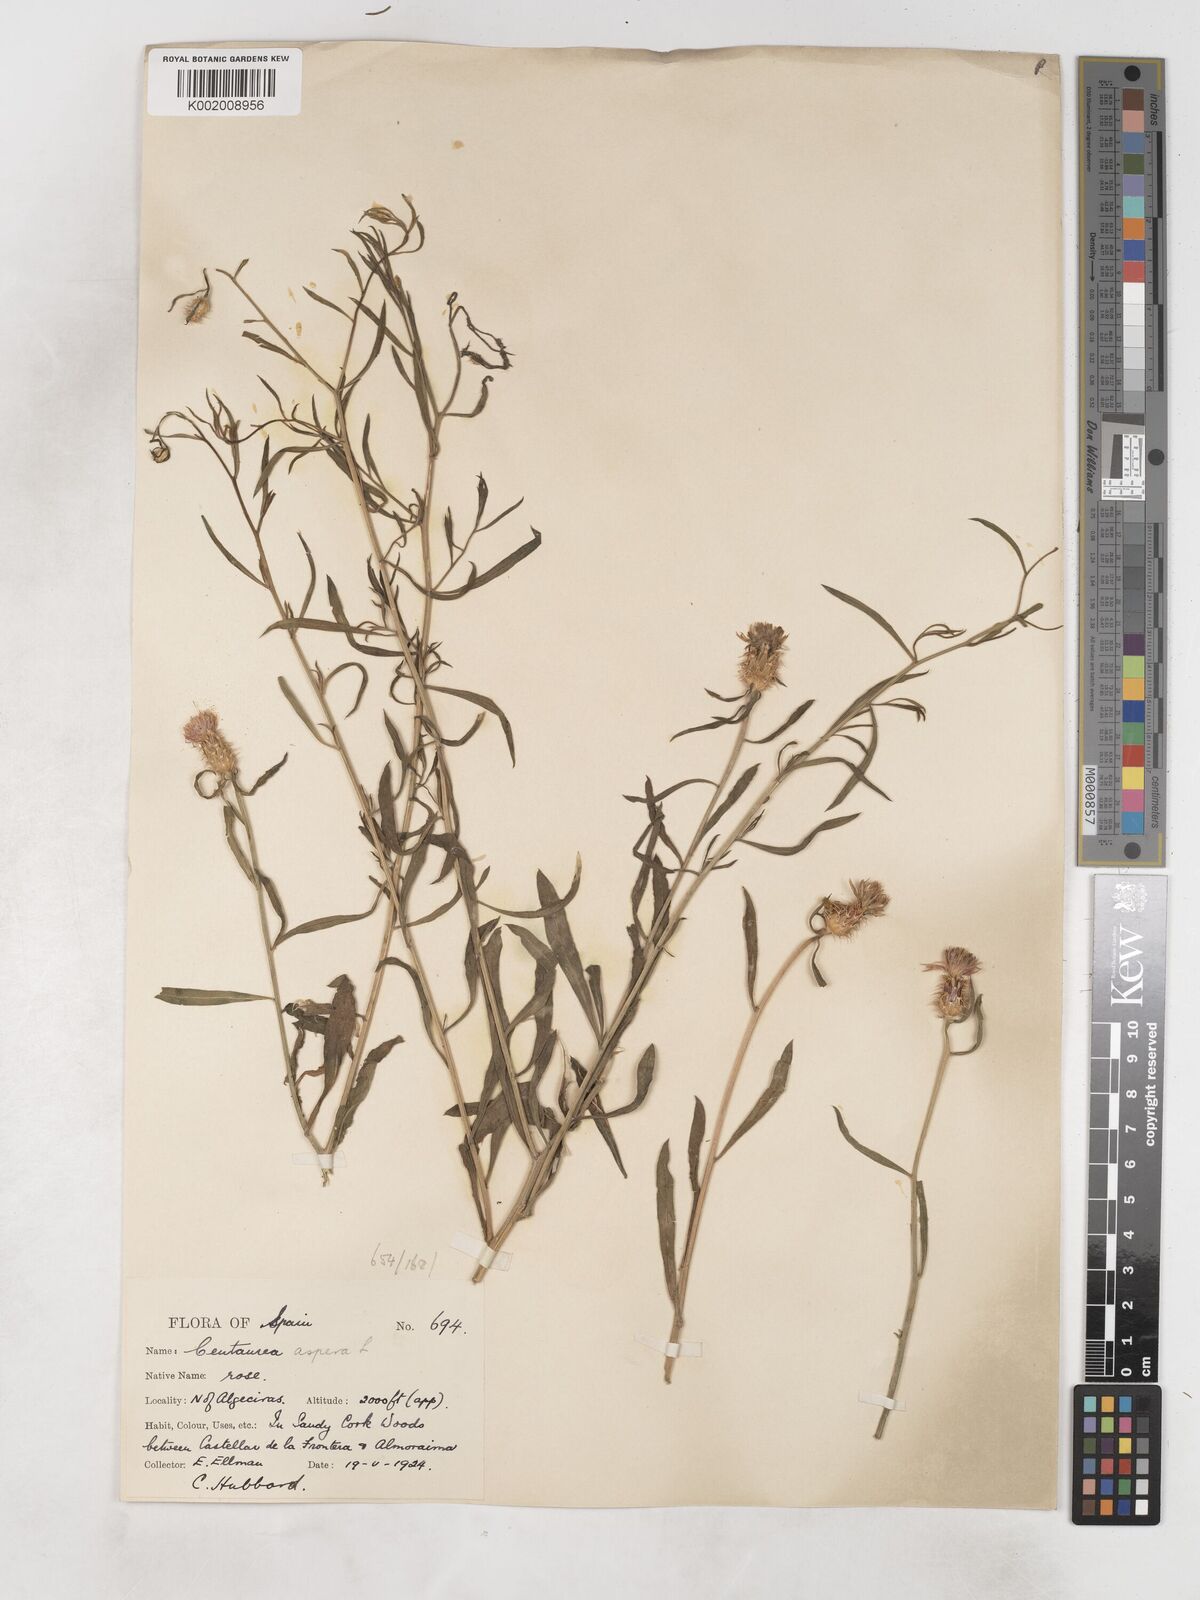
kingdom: Plantae
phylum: Tracheophyta
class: Magnoliopsida
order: Asterales
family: Asteraceae
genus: Centaurea
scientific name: Centaurea aspera
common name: Rough star-thistle
